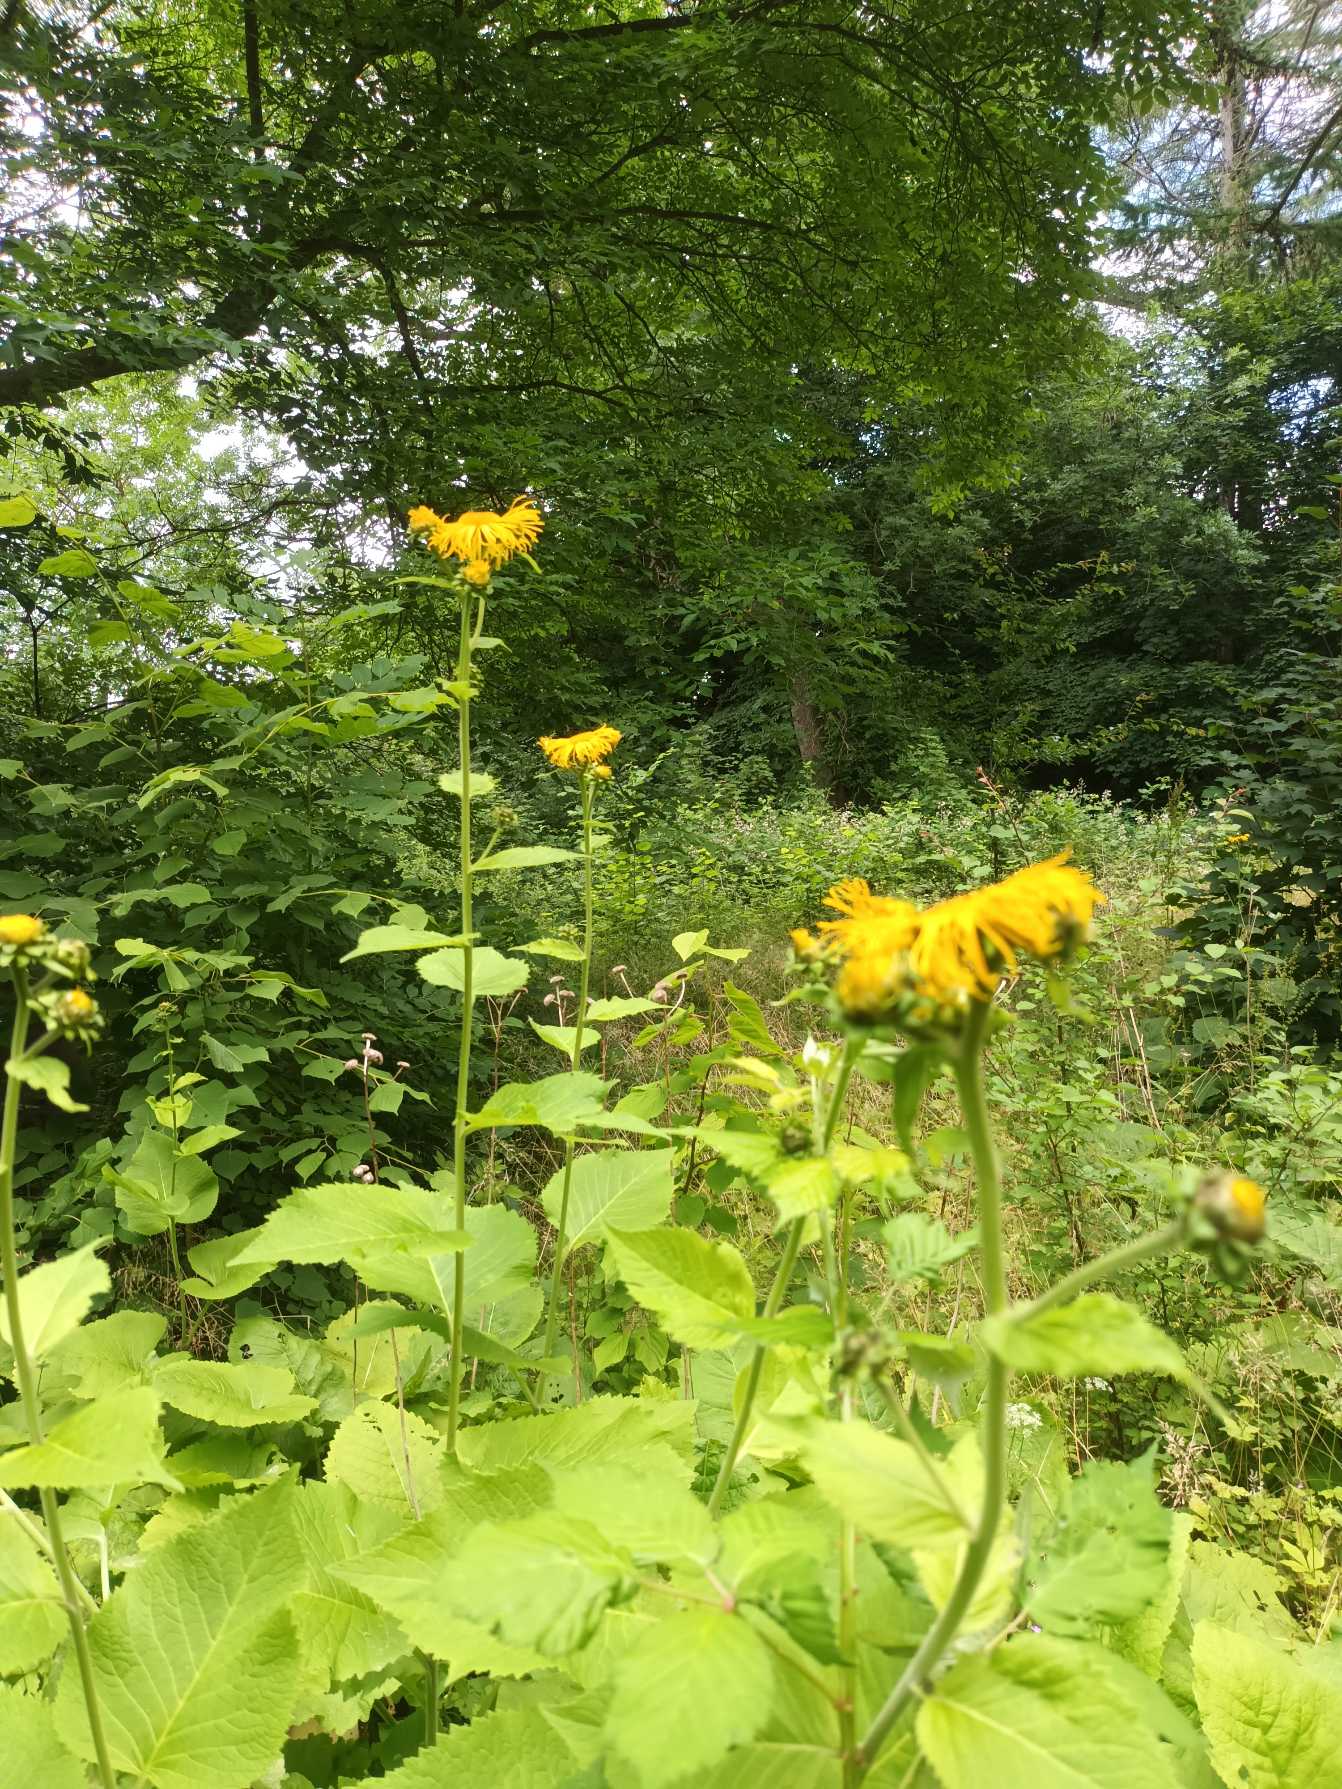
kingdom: Plantae
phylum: Tracheophyta
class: Magnoliopsida
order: Asterales
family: Asteraceae
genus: Telekia
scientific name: Telekia speciosa
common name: Tusindstråle
